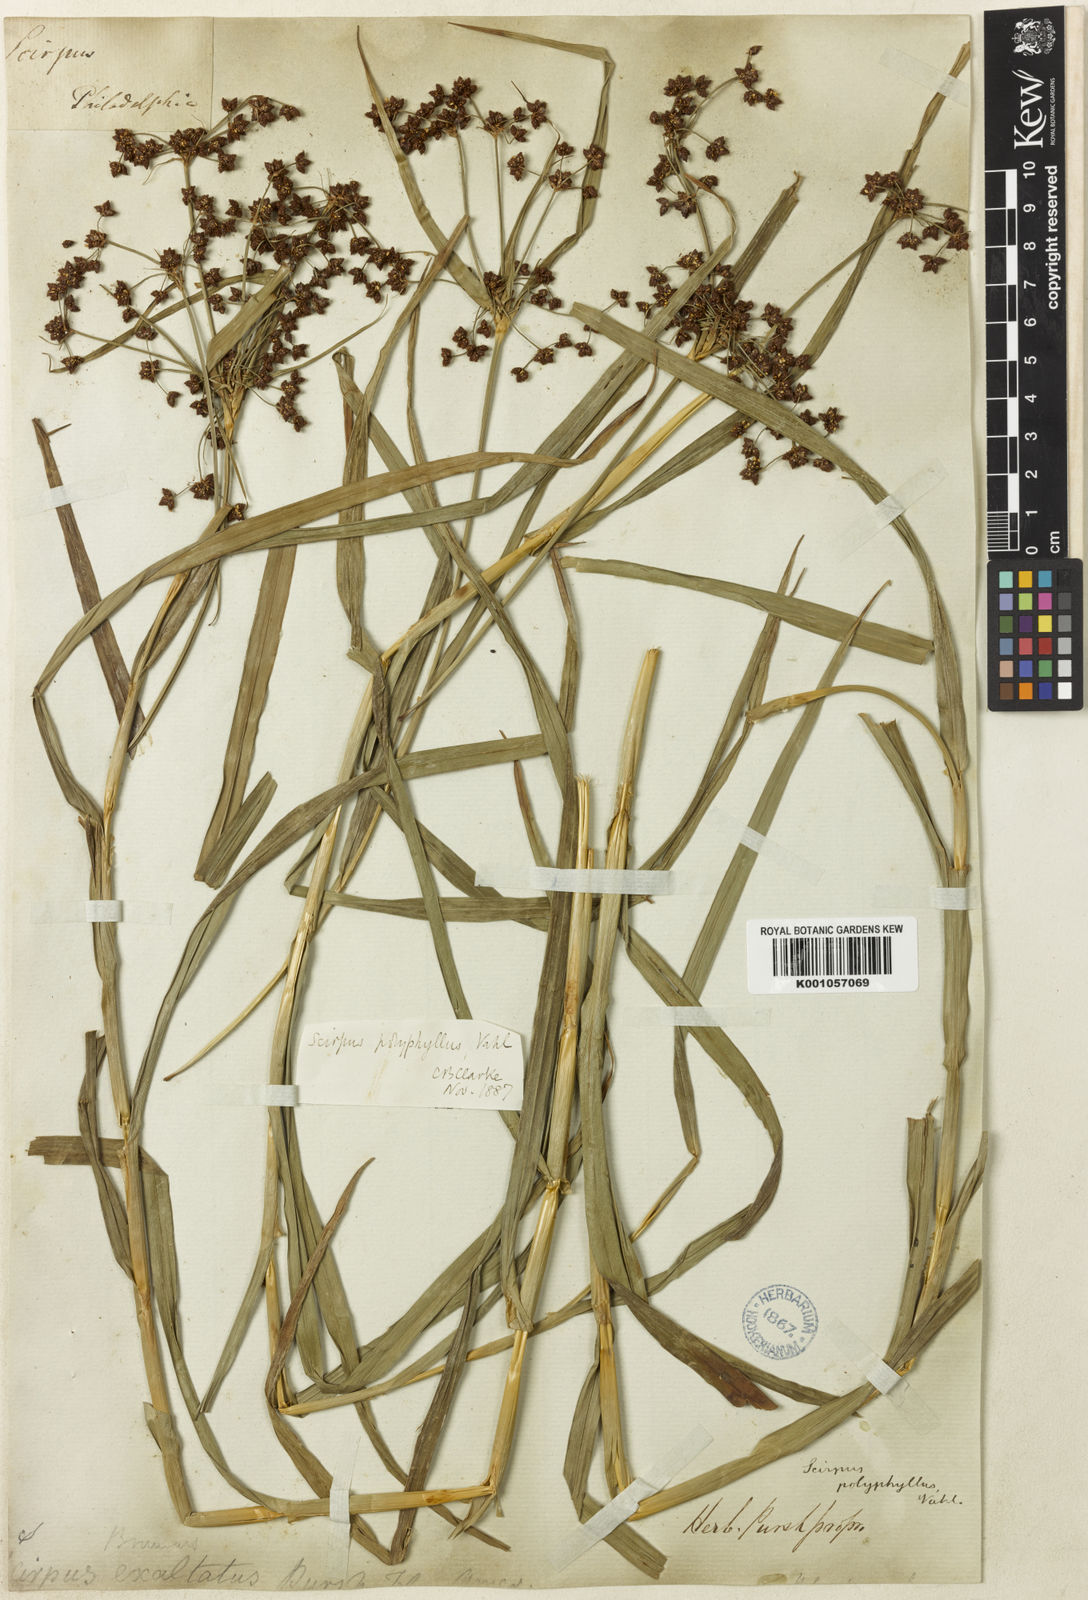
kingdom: Plantae
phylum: Tracheophyta
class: Liliopsida
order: Poales
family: Cyperaceae
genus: Scirpus
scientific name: Scirpus polyphyllus
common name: Leafy bulrush
